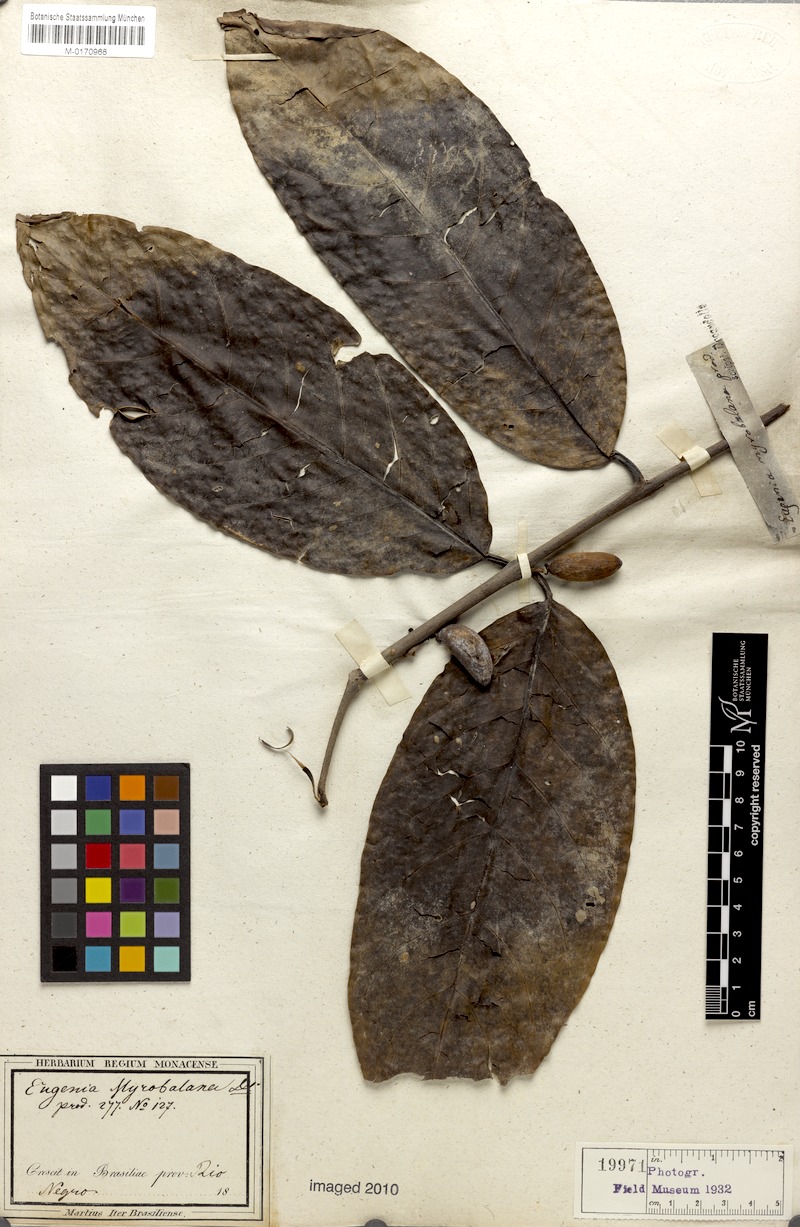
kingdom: Plantae
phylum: Tracheophyta
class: Magnoliopsida
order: Myrtales
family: Myrtaceae
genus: Eugenia
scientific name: Eugenia myrobalana
